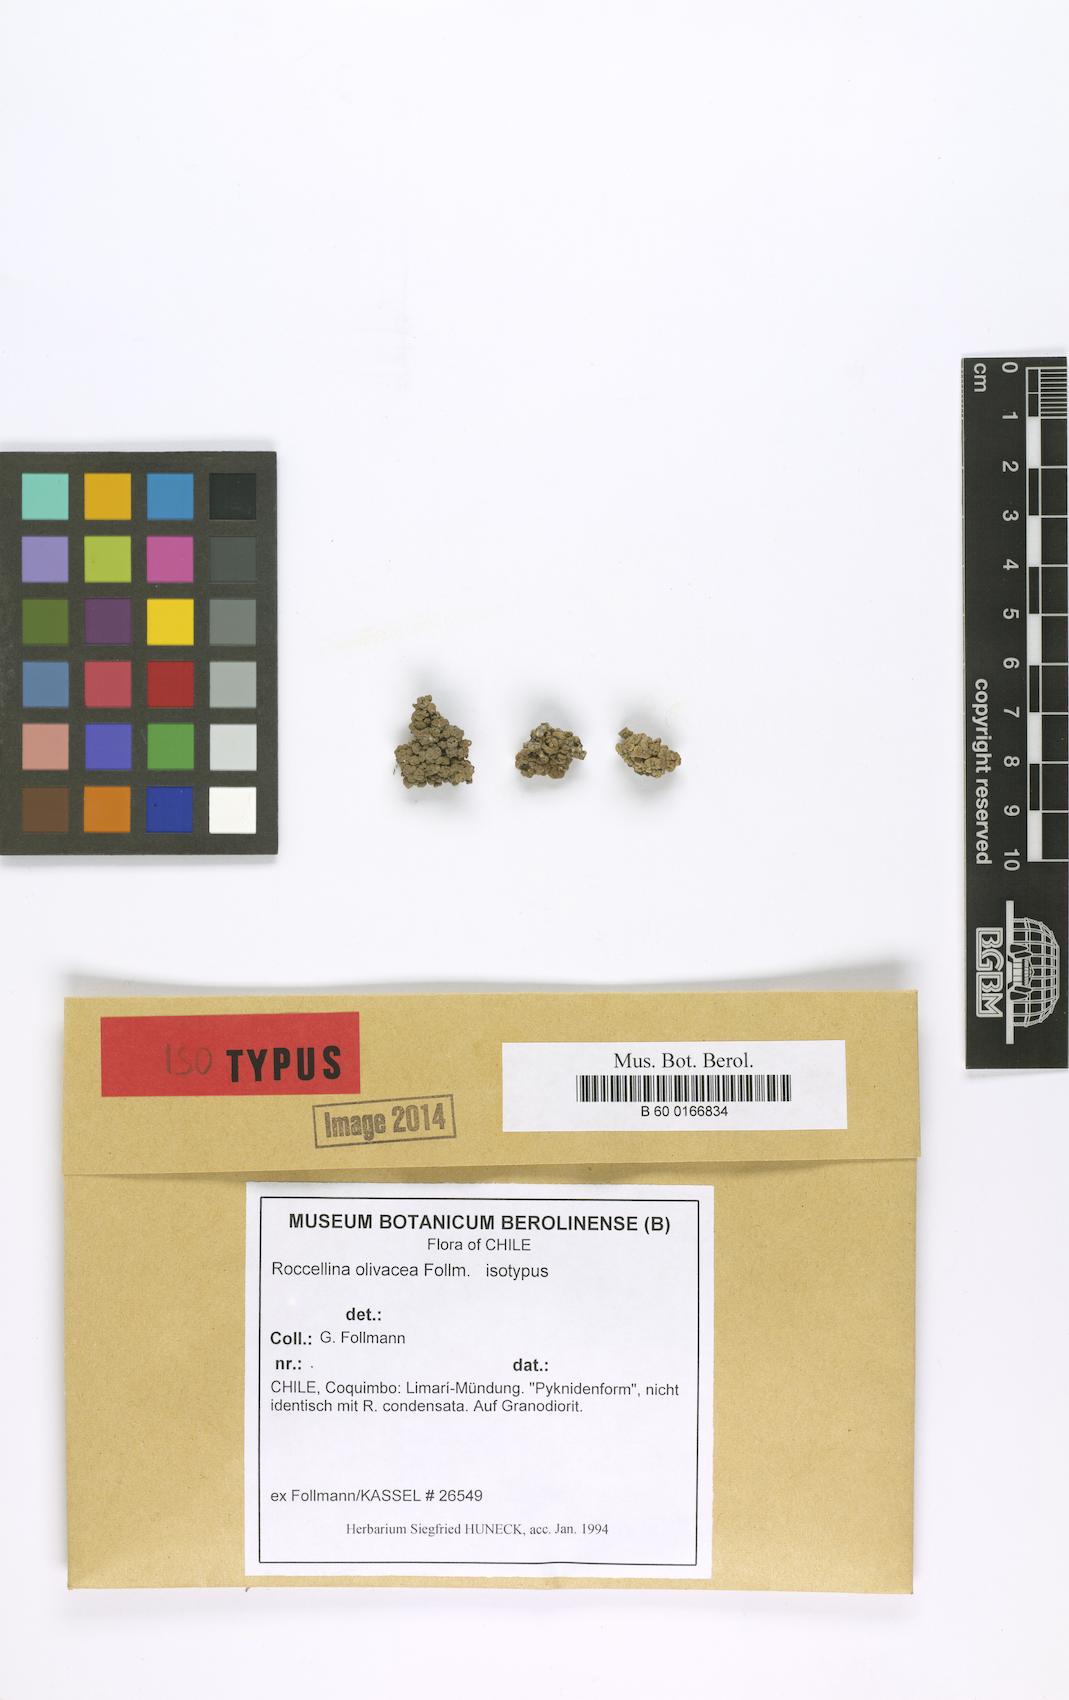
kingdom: Fungi
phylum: Ascomycota
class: Arthoniomycetes
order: Arthoniales
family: Roccellaceae
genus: Roccellina
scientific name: Roccellina accedens
